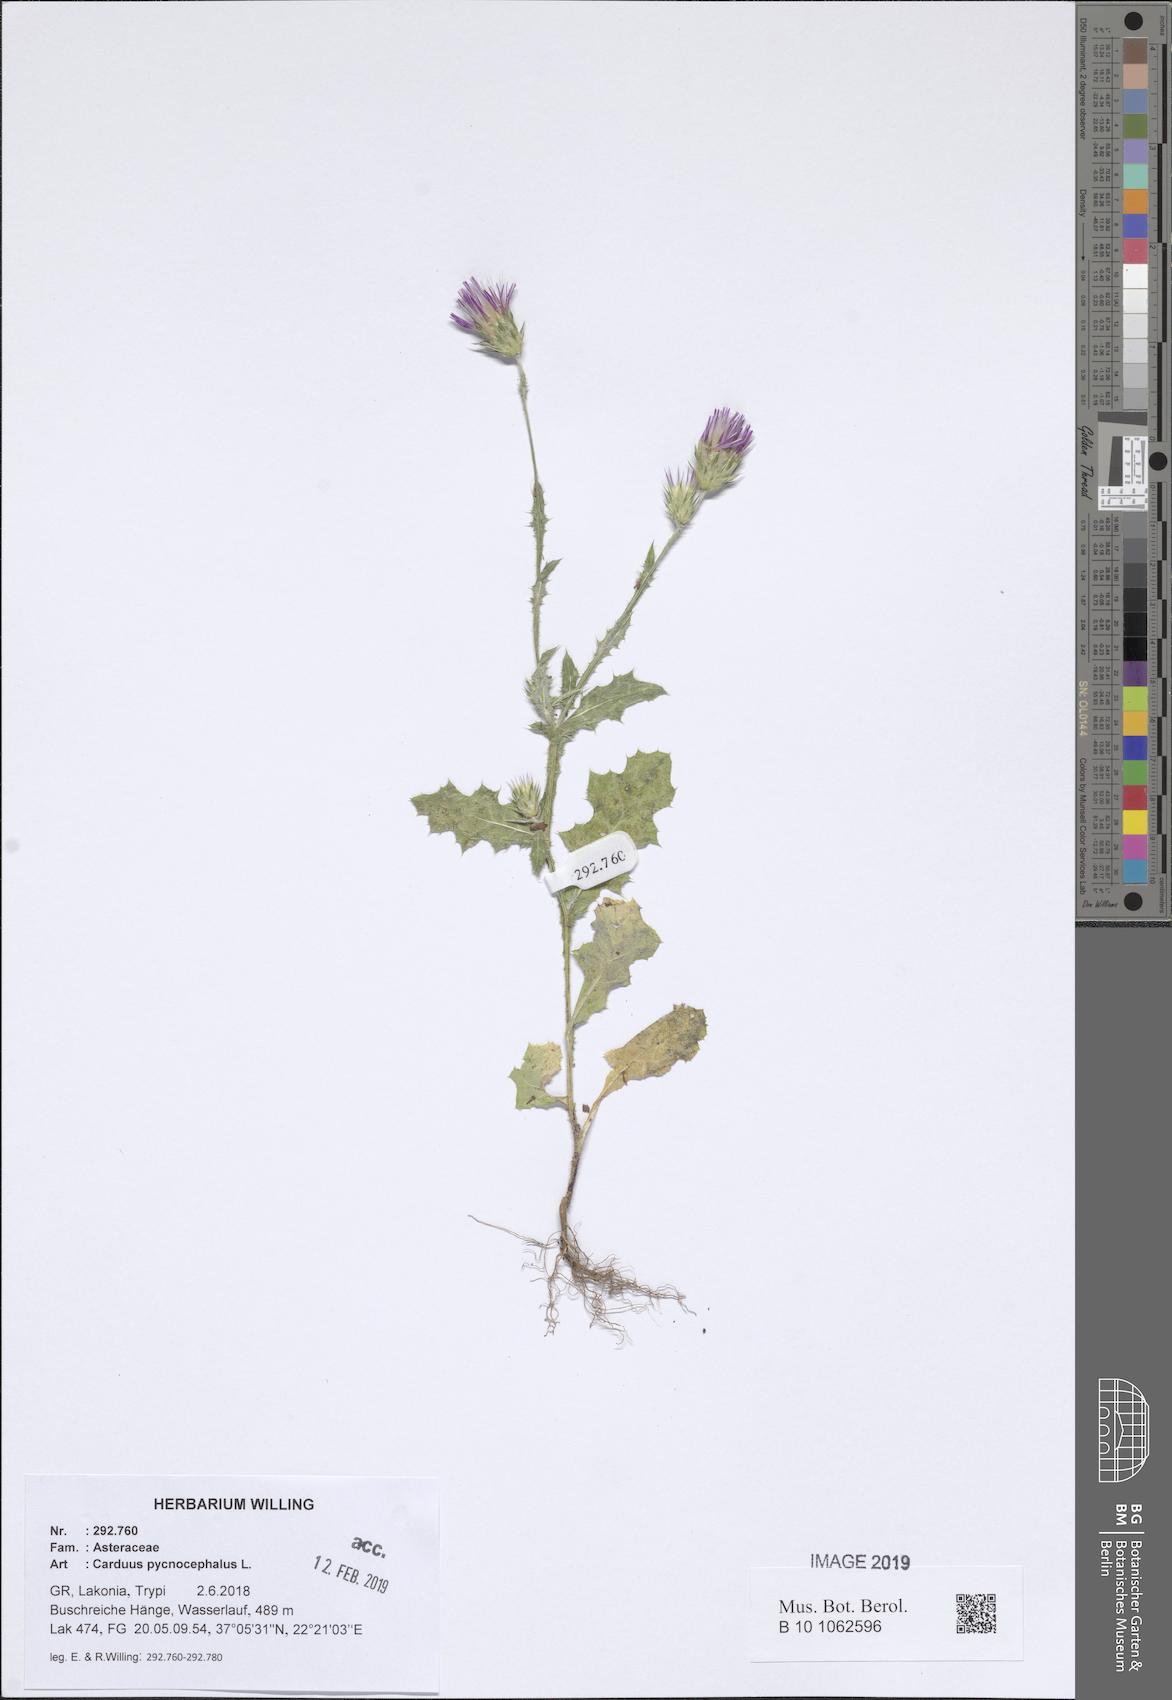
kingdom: Plantae
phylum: Tracheophyta
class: Magnoliopsida
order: Asterales
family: Asteraceae
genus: Carduus
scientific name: Carduus pycnocephalus
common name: Plymouth thistle
